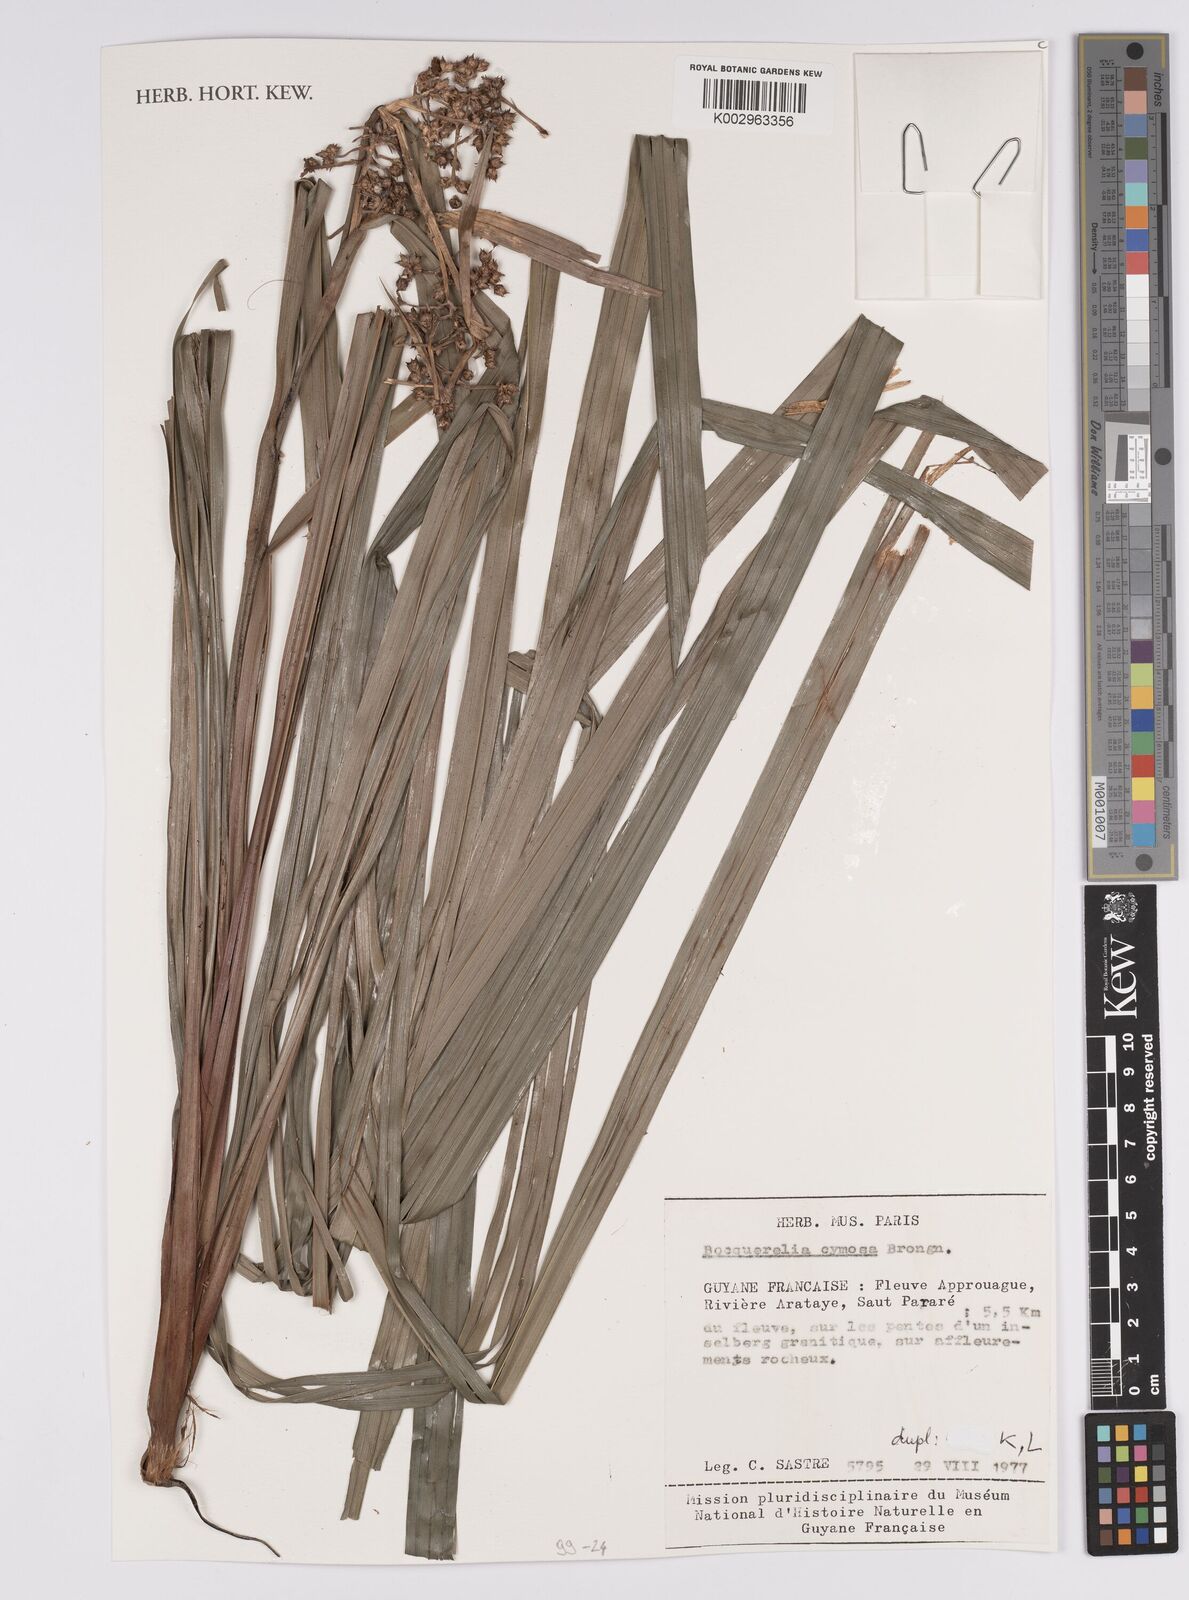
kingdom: Plantae
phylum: Tracheophyta
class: Liliopsida
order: Poales
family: Cyperaceae
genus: Becquerelia
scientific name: Becquerelia cymosa
